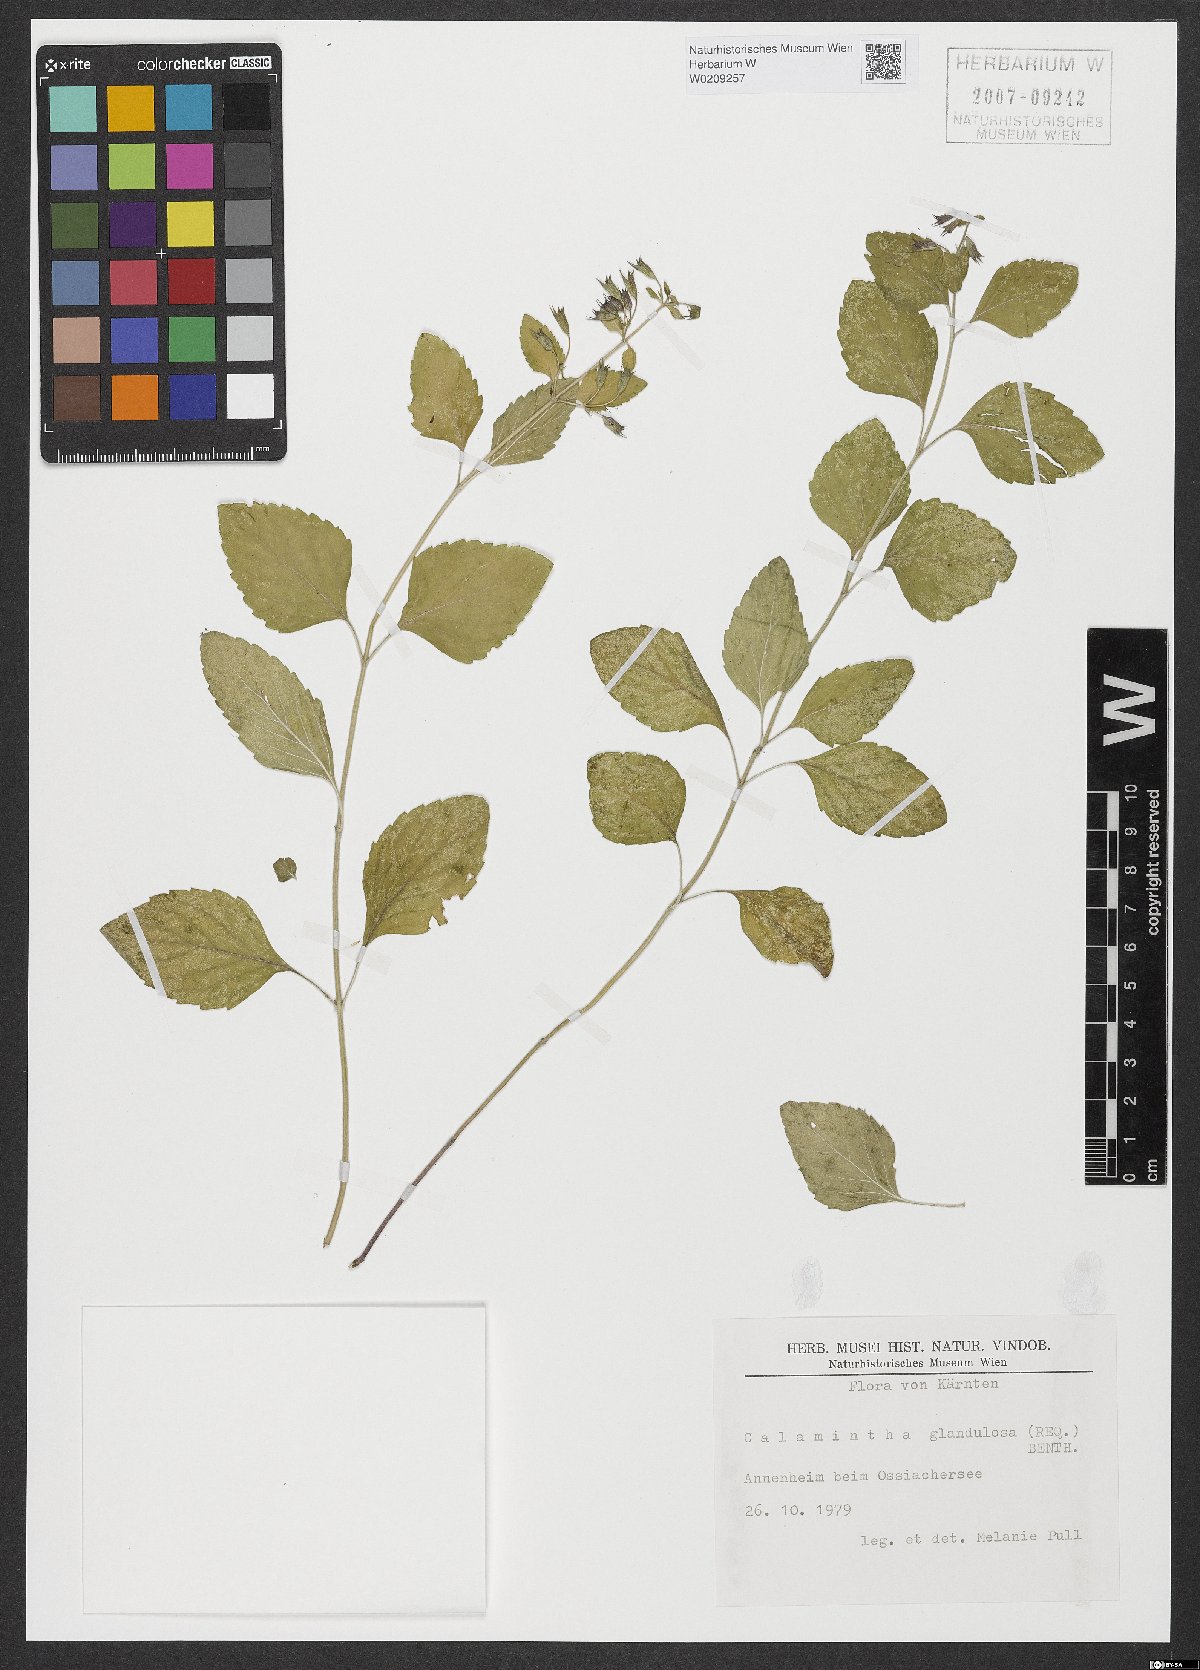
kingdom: Plantae
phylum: Tracheophyta
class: Magnoliopsida
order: Lamiales
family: Lamiaceae
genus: Clinopodium
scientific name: Clinopodium nepeta
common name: Lesser calamint
